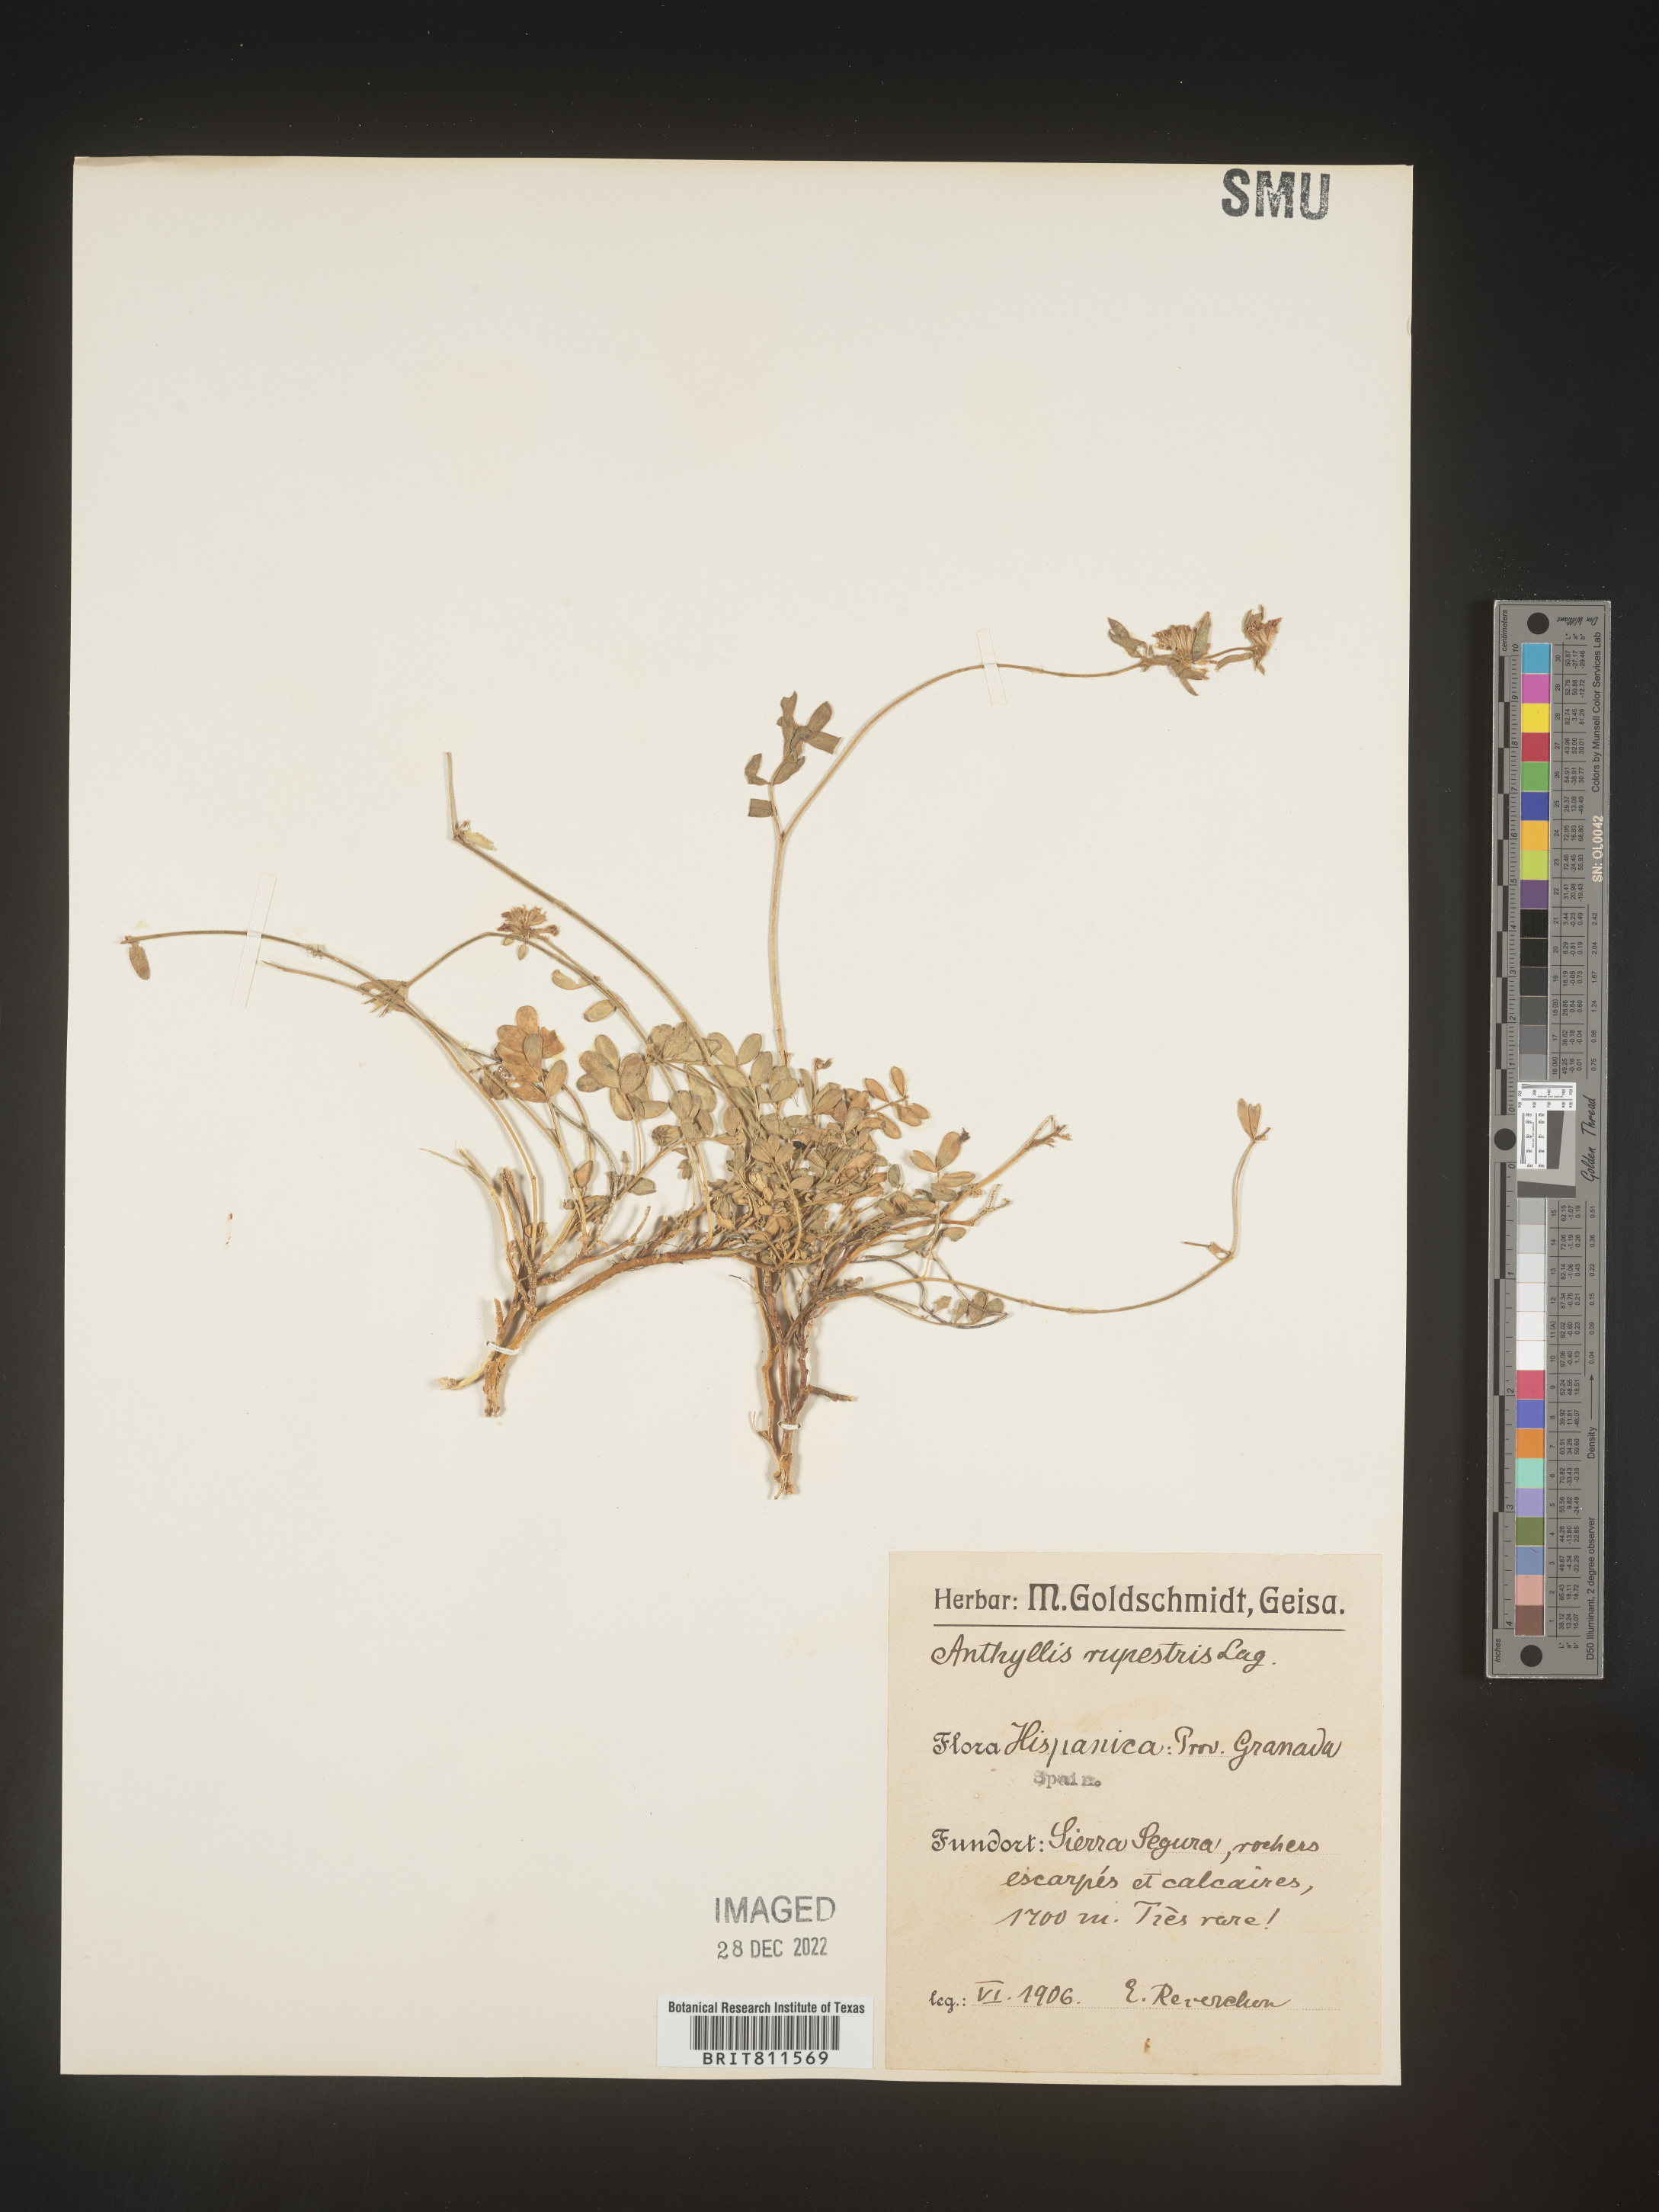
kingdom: Plantae
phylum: Tracheophyta
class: Magnoliopsida
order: Fabales
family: Fabaceae
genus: Anthyllis
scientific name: Anthyllis
